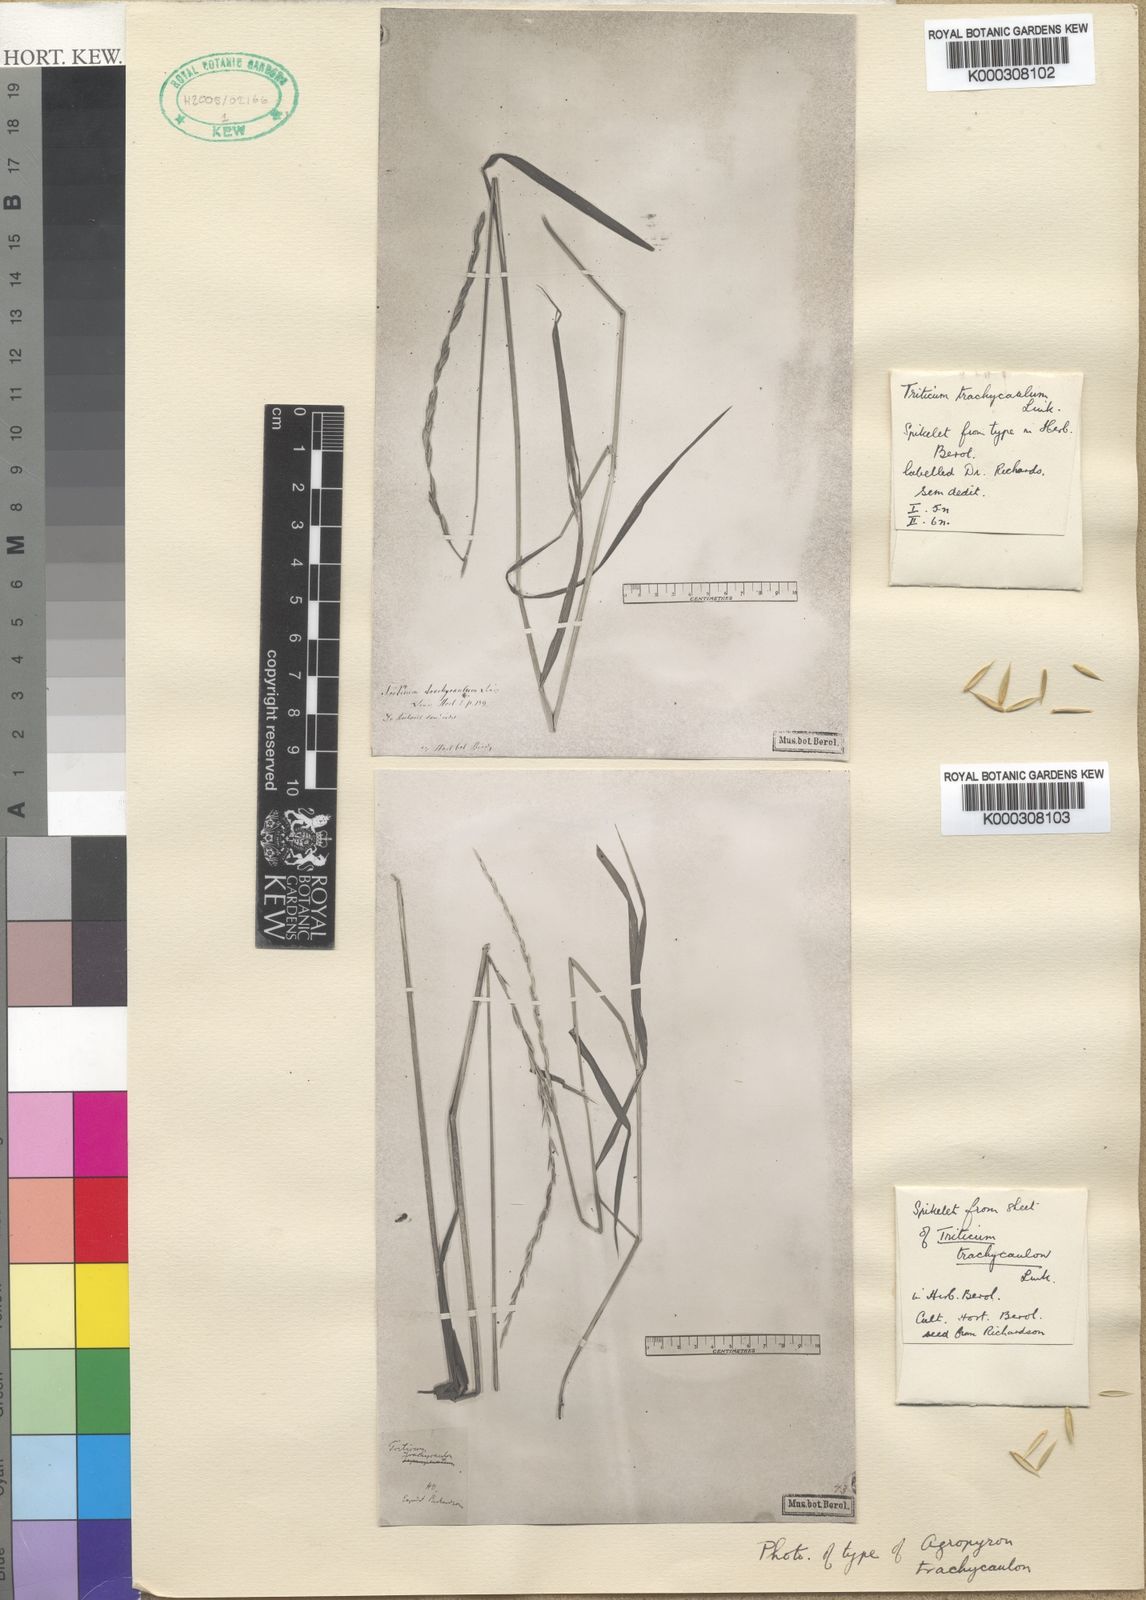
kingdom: Plantae
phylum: Tracheophyta
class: Liliopsida
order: Poales
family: Poaceae
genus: Elymus
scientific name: Elymus
